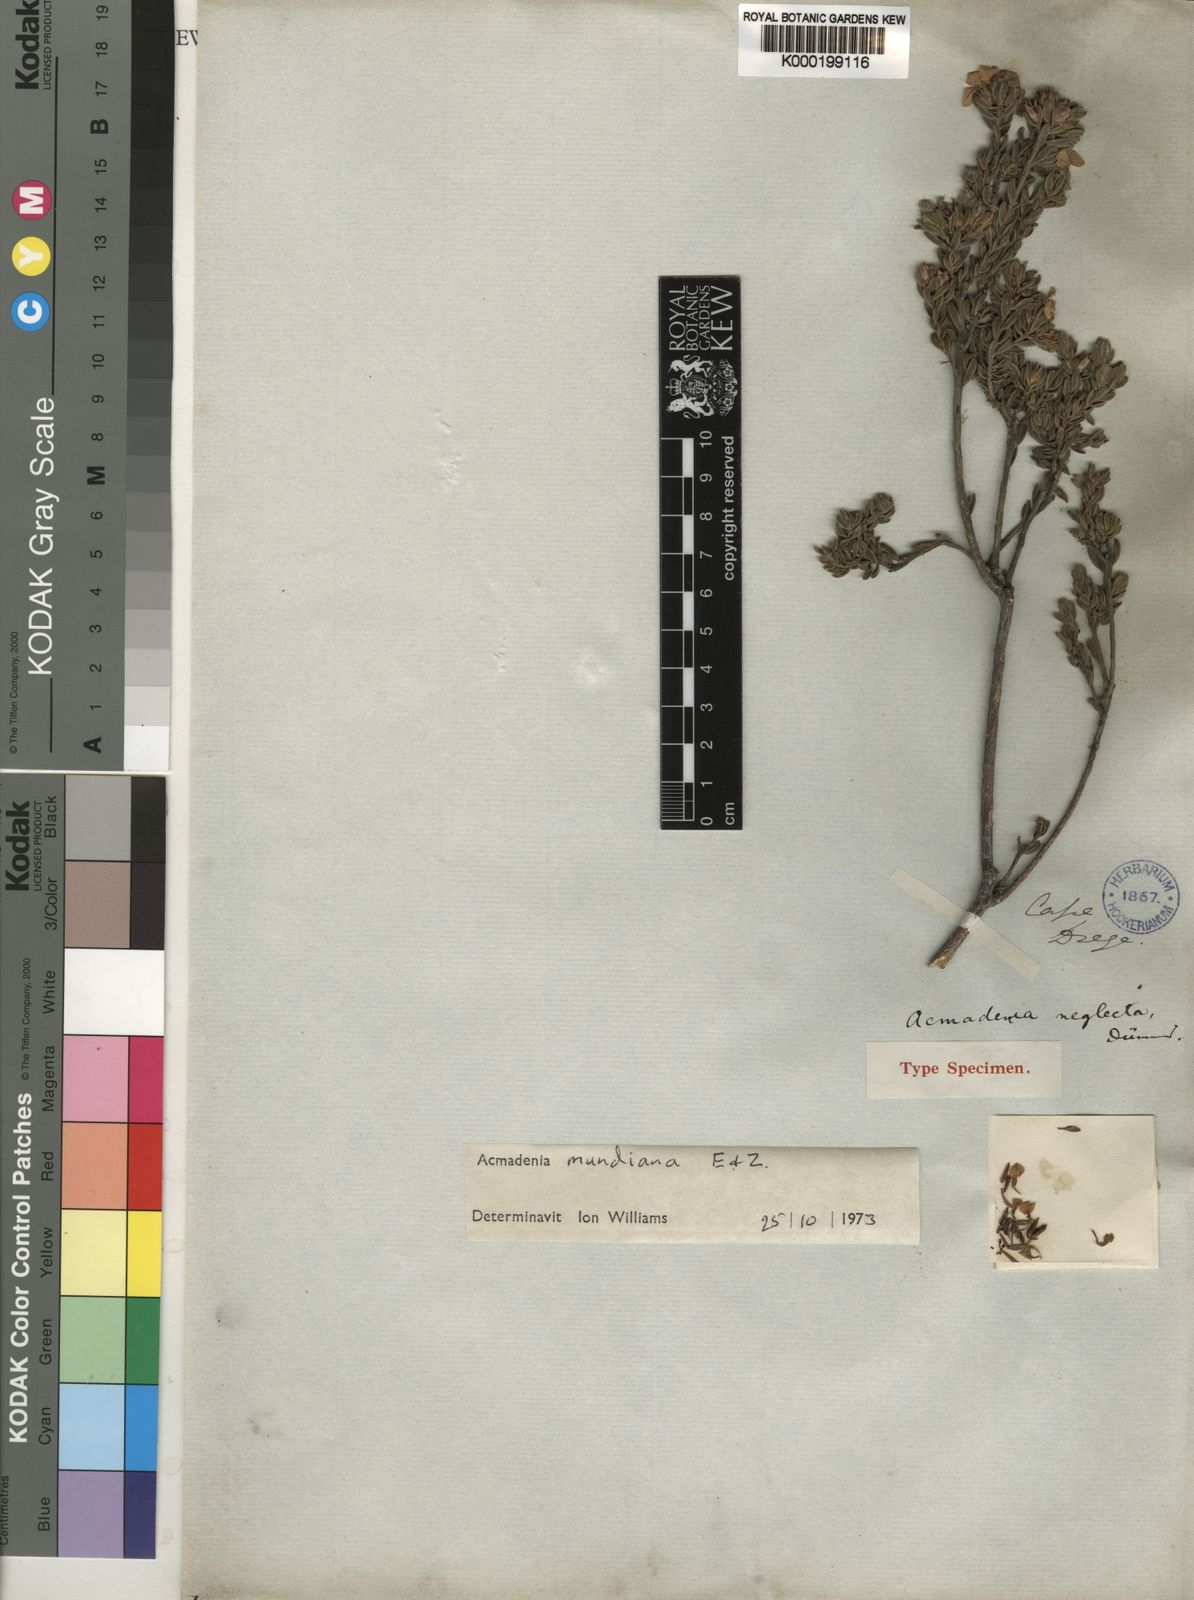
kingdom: Plantae
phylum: Tracheophyta
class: Magnoliopsida
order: Sapindales
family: Rutaceae
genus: Acmadenia
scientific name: Acmadenia mundiana
